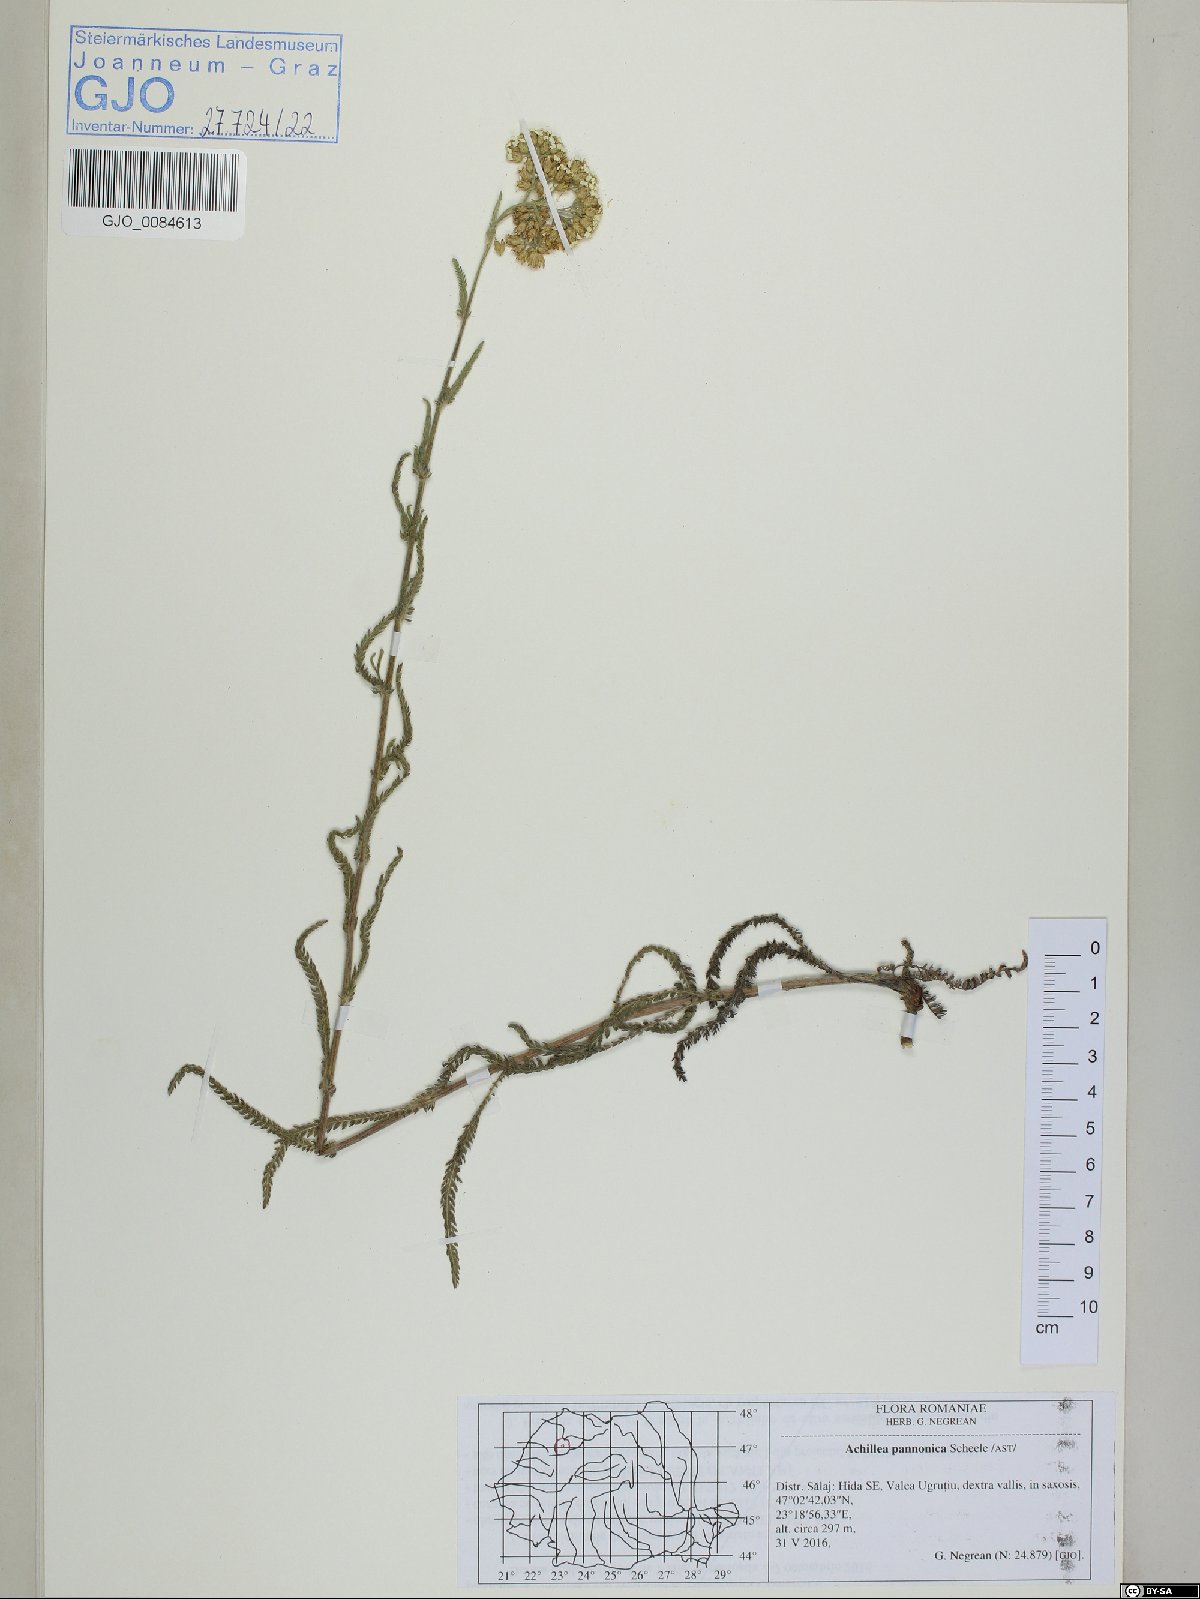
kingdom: Plantae
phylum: Tracheophyta
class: Magnoliopsida
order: Asterales
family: Asteraceae
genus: Achillea
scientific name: Achillea pannonica
